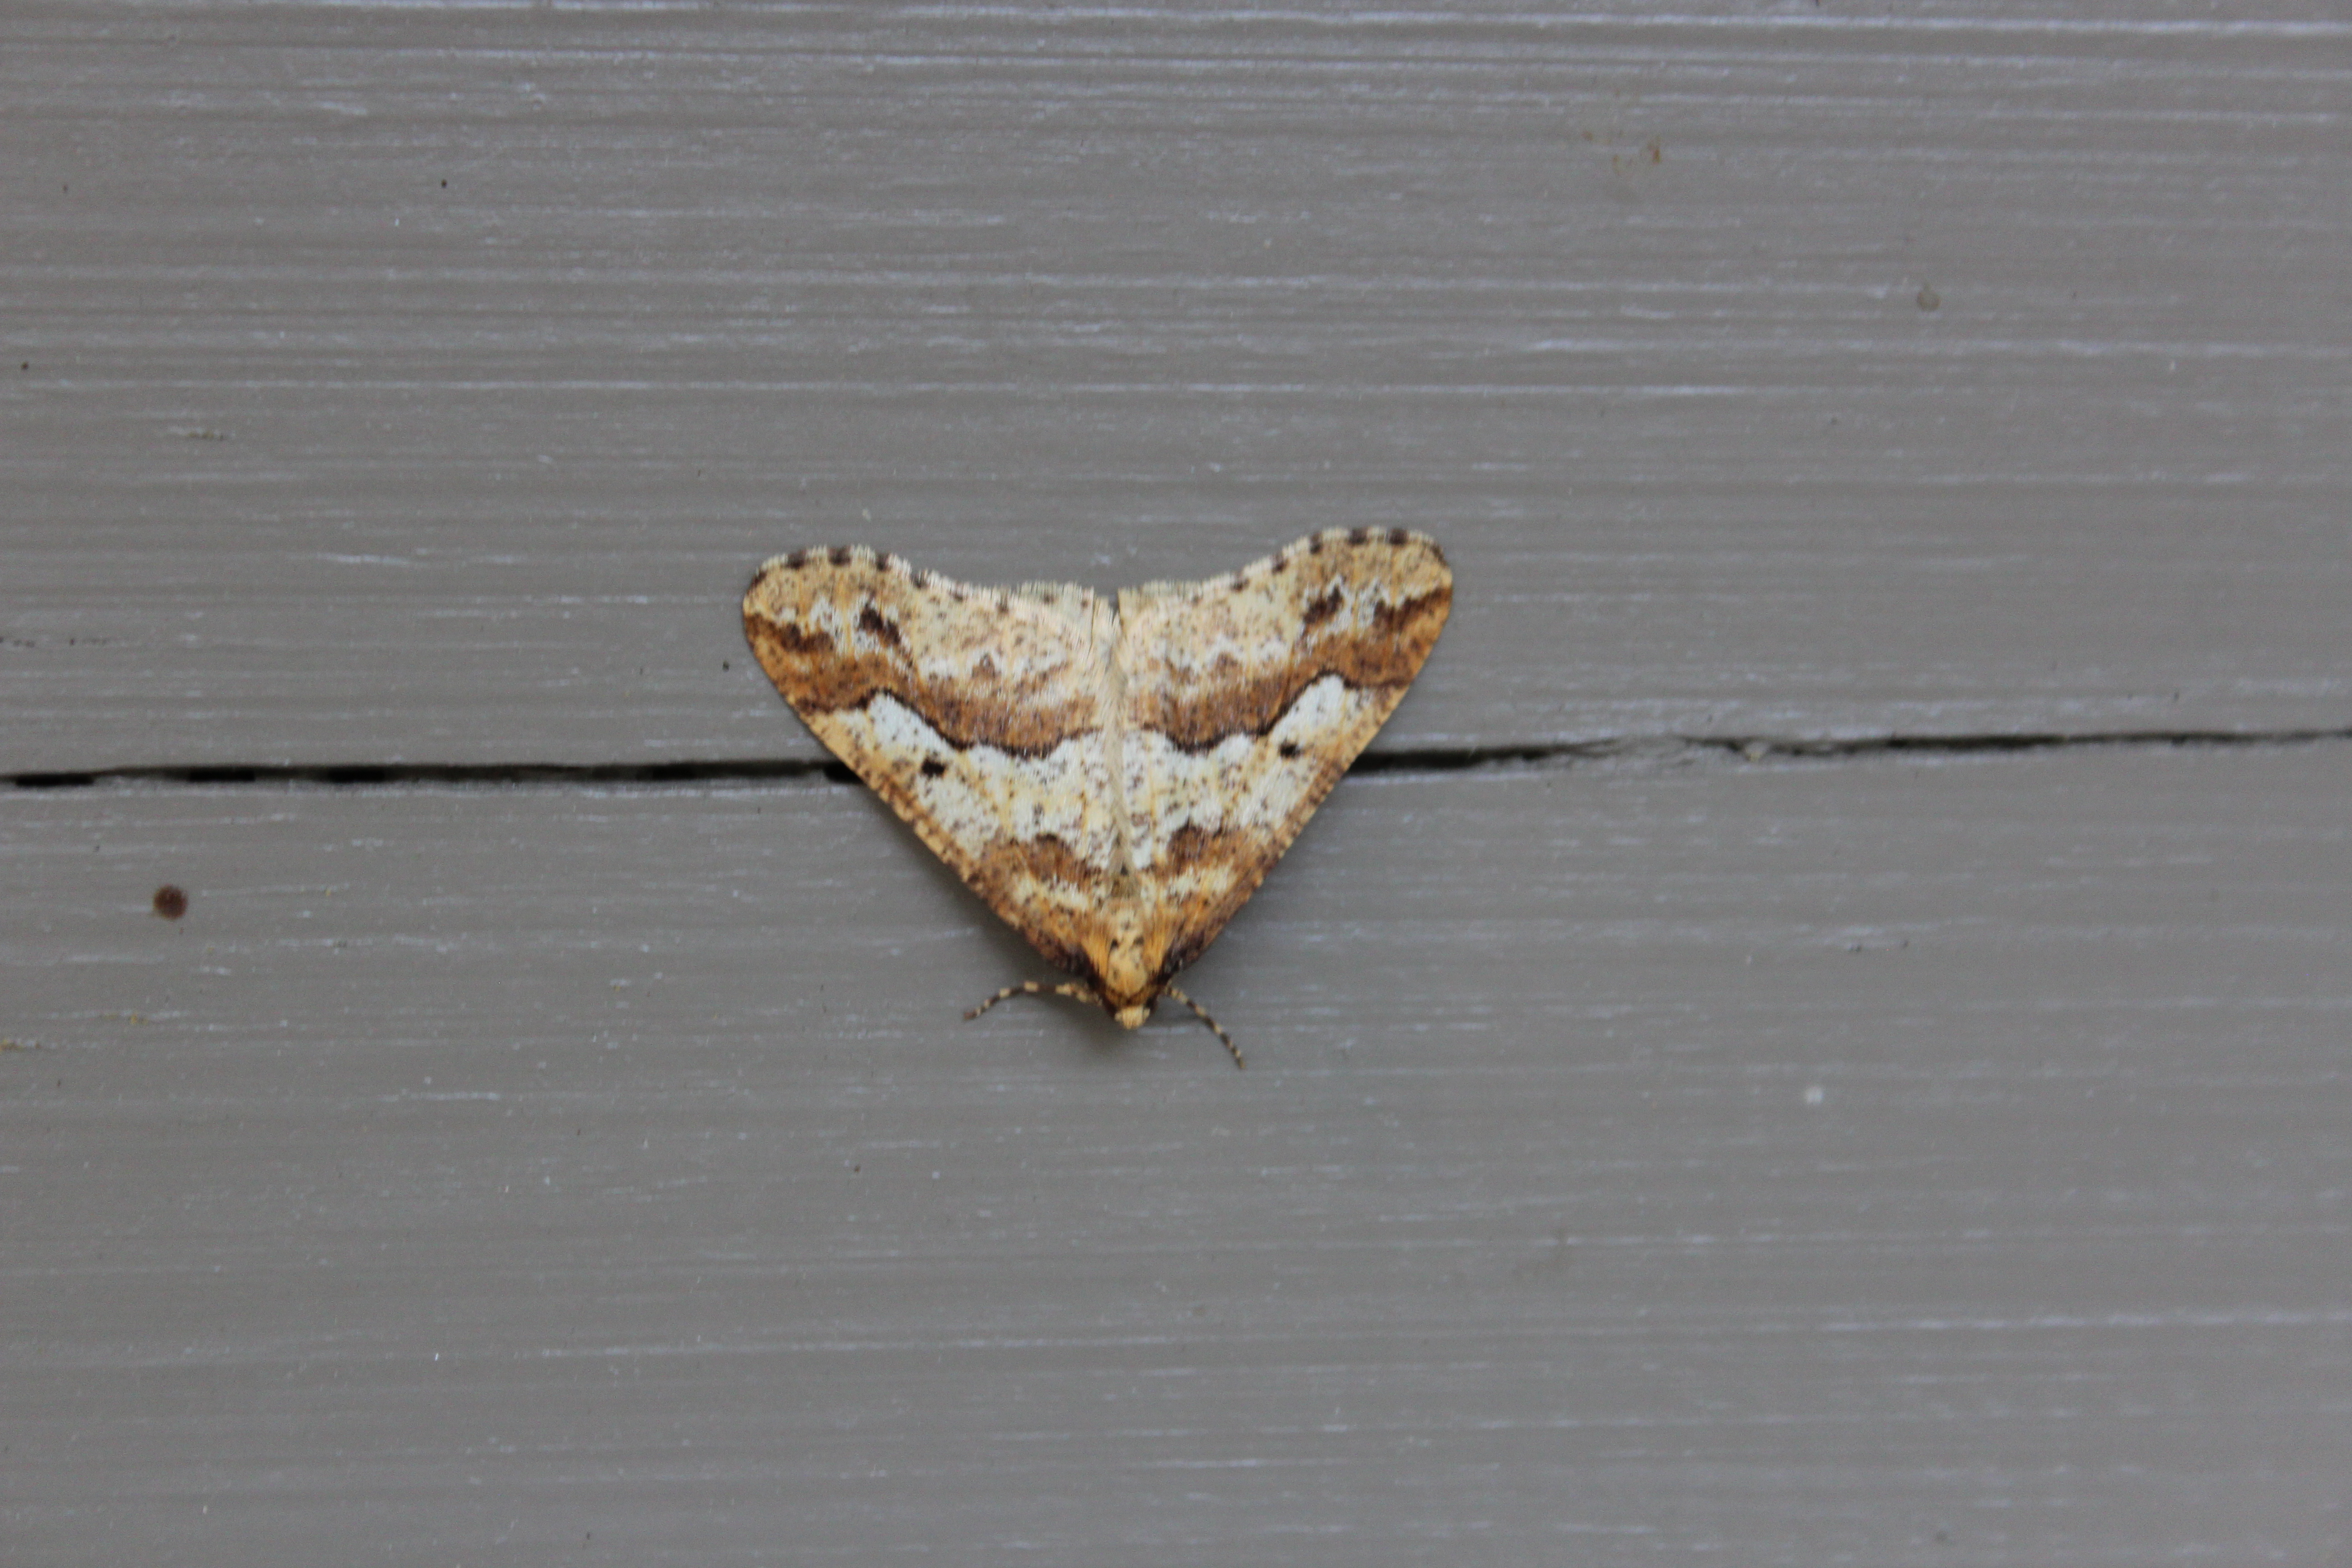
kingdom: Animalia
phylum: Arthropoda
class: Insecta
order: Lepidoptera
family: Geometridae
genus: Erannis
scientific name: Erannis defoliaria
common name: Mottled umber
